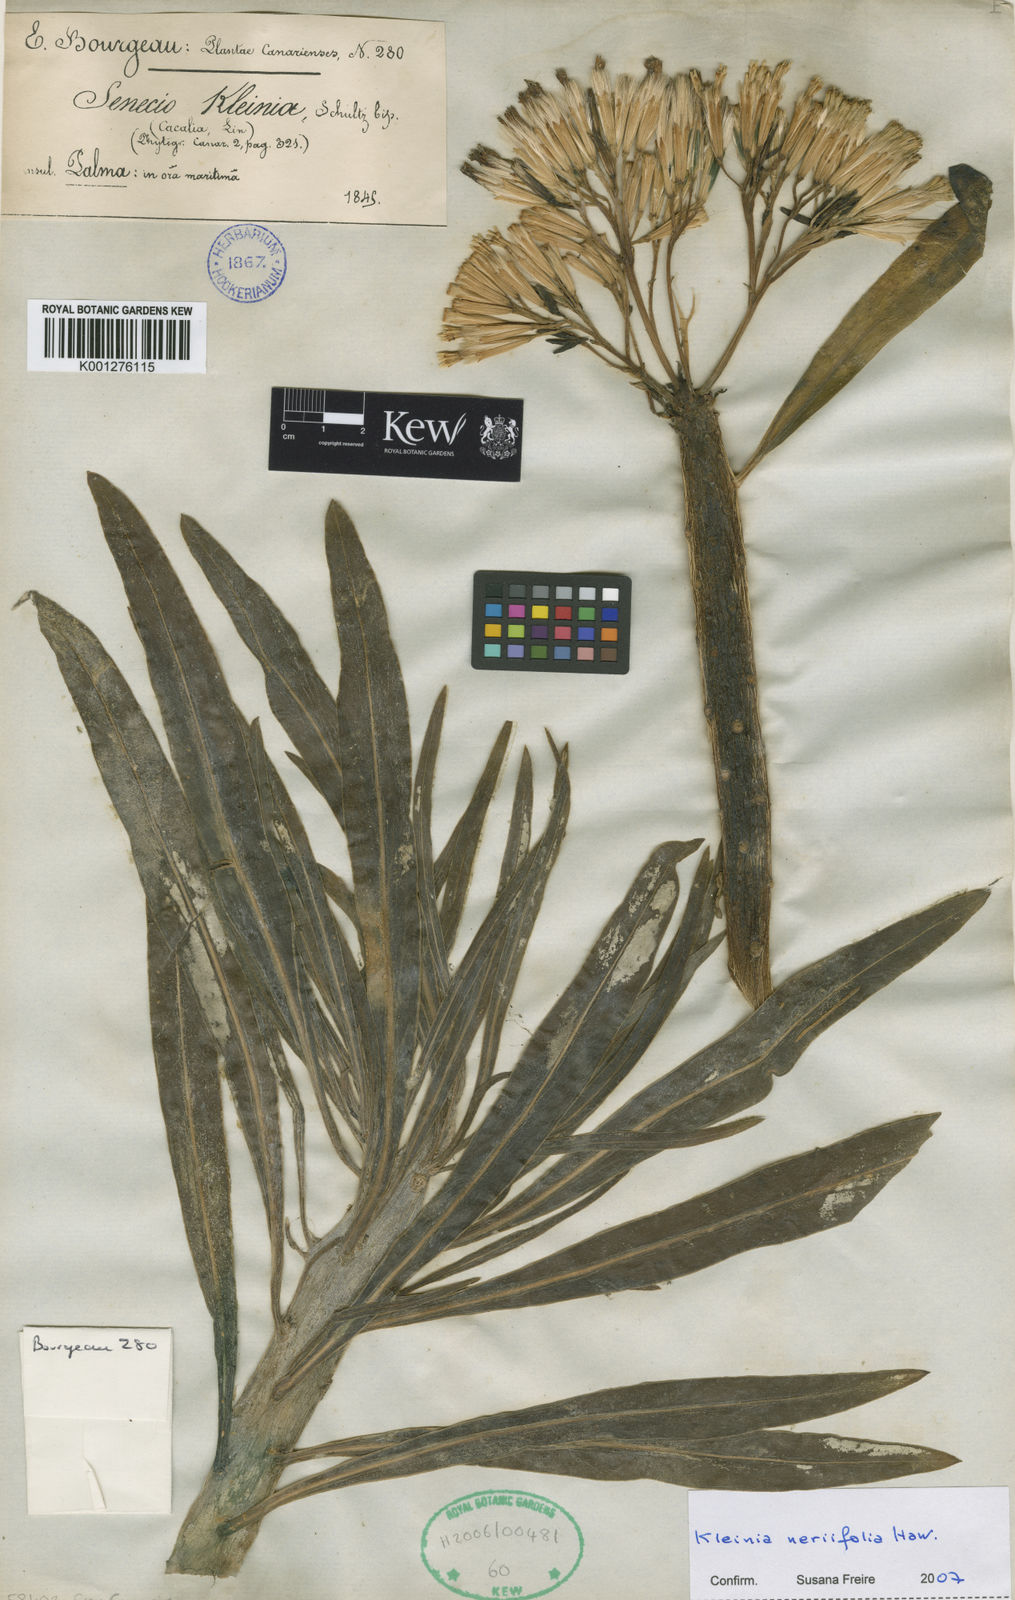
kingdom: Plantae
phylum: Tracheophyta
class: Magnoliopsida
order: Asterales
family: Asteraceae
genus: Kleinia
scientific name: Kleinia neriifolia
